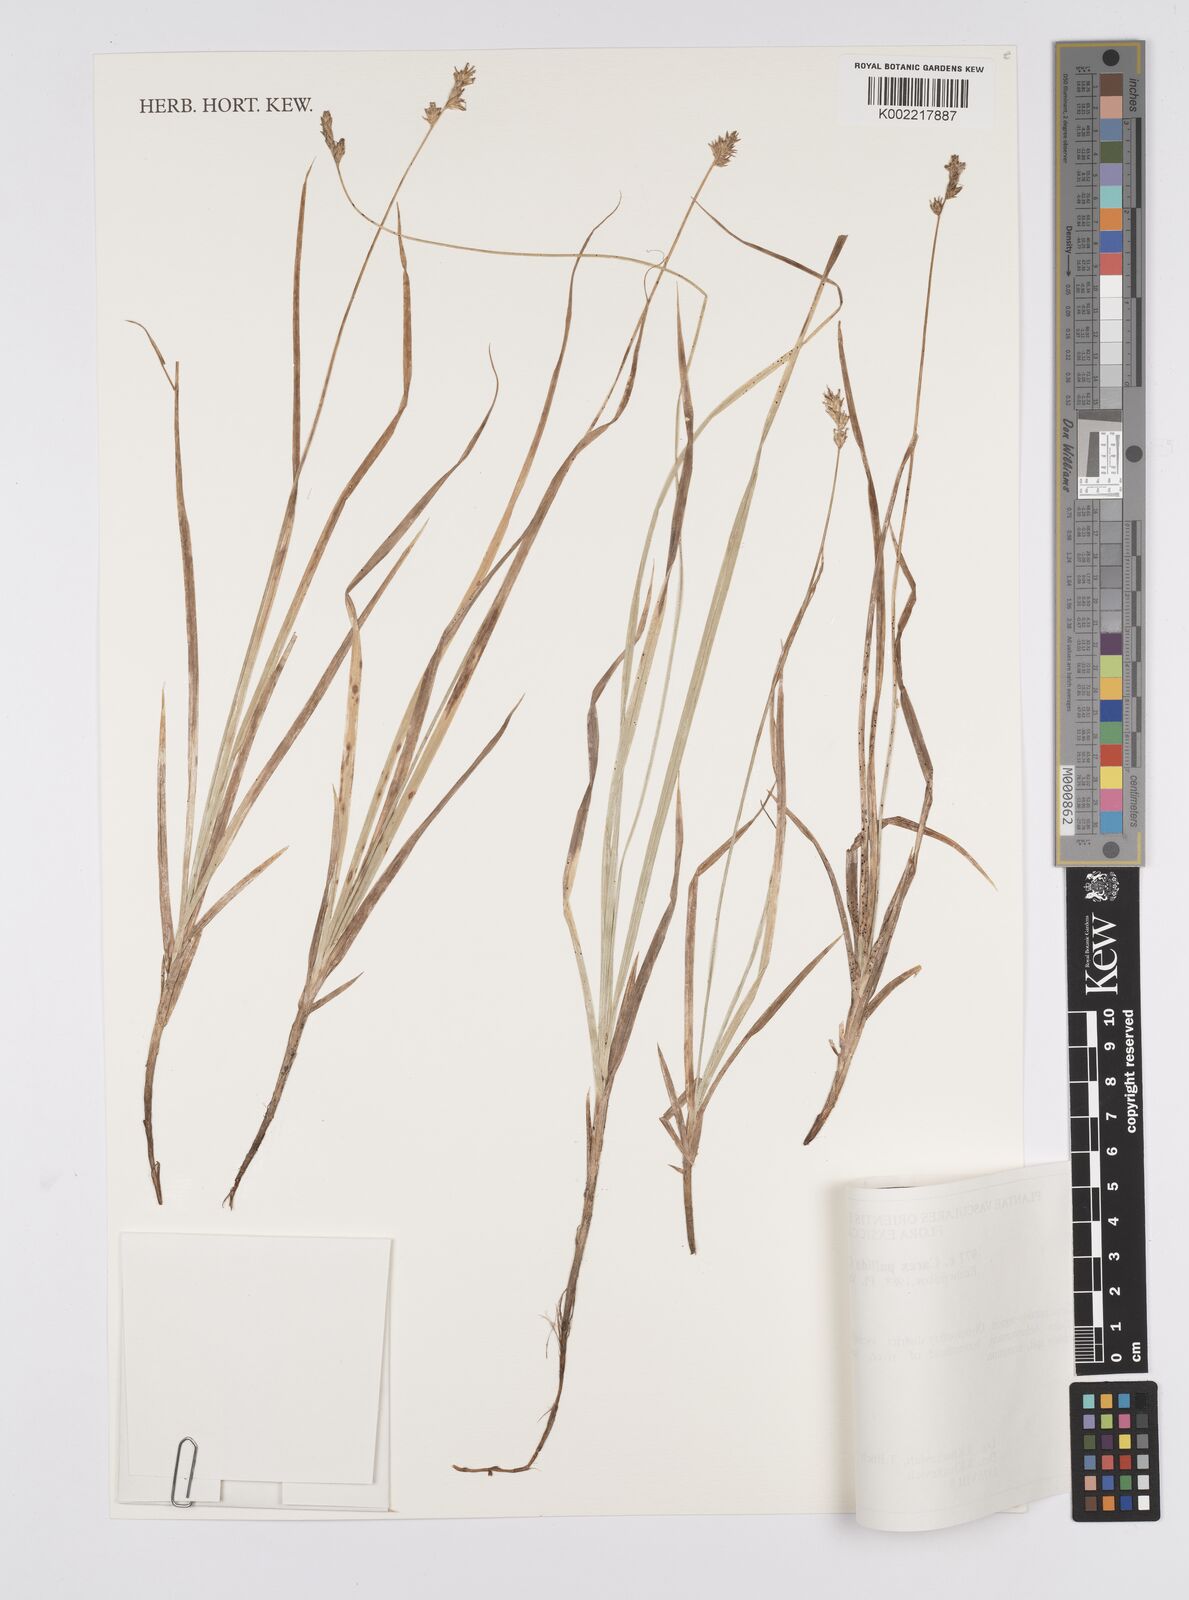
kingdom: Plantae
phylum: Tracheophyta
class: Liliopsida
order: Poales
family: Cyperaceae
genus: Carex
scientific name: Carex accrescens
